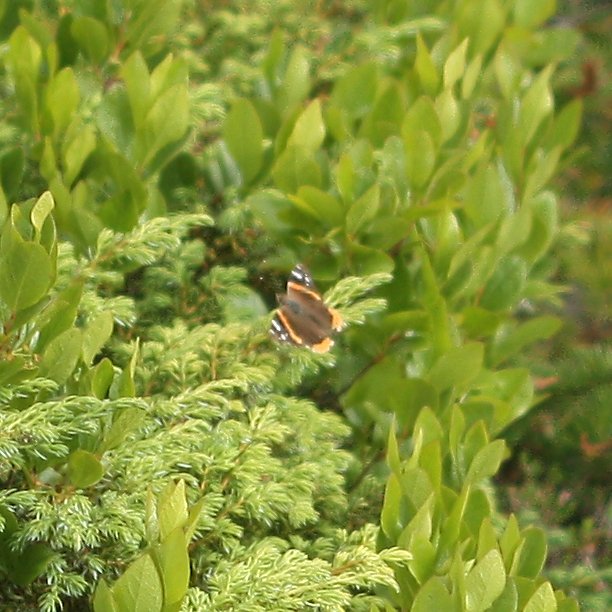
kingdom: Animalia
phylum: Arthropoda
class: Insecta
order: Lepidoptera
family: Nymphalidae
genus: Vanessa
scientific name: Vanessa atalanta
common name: Red Admiral
